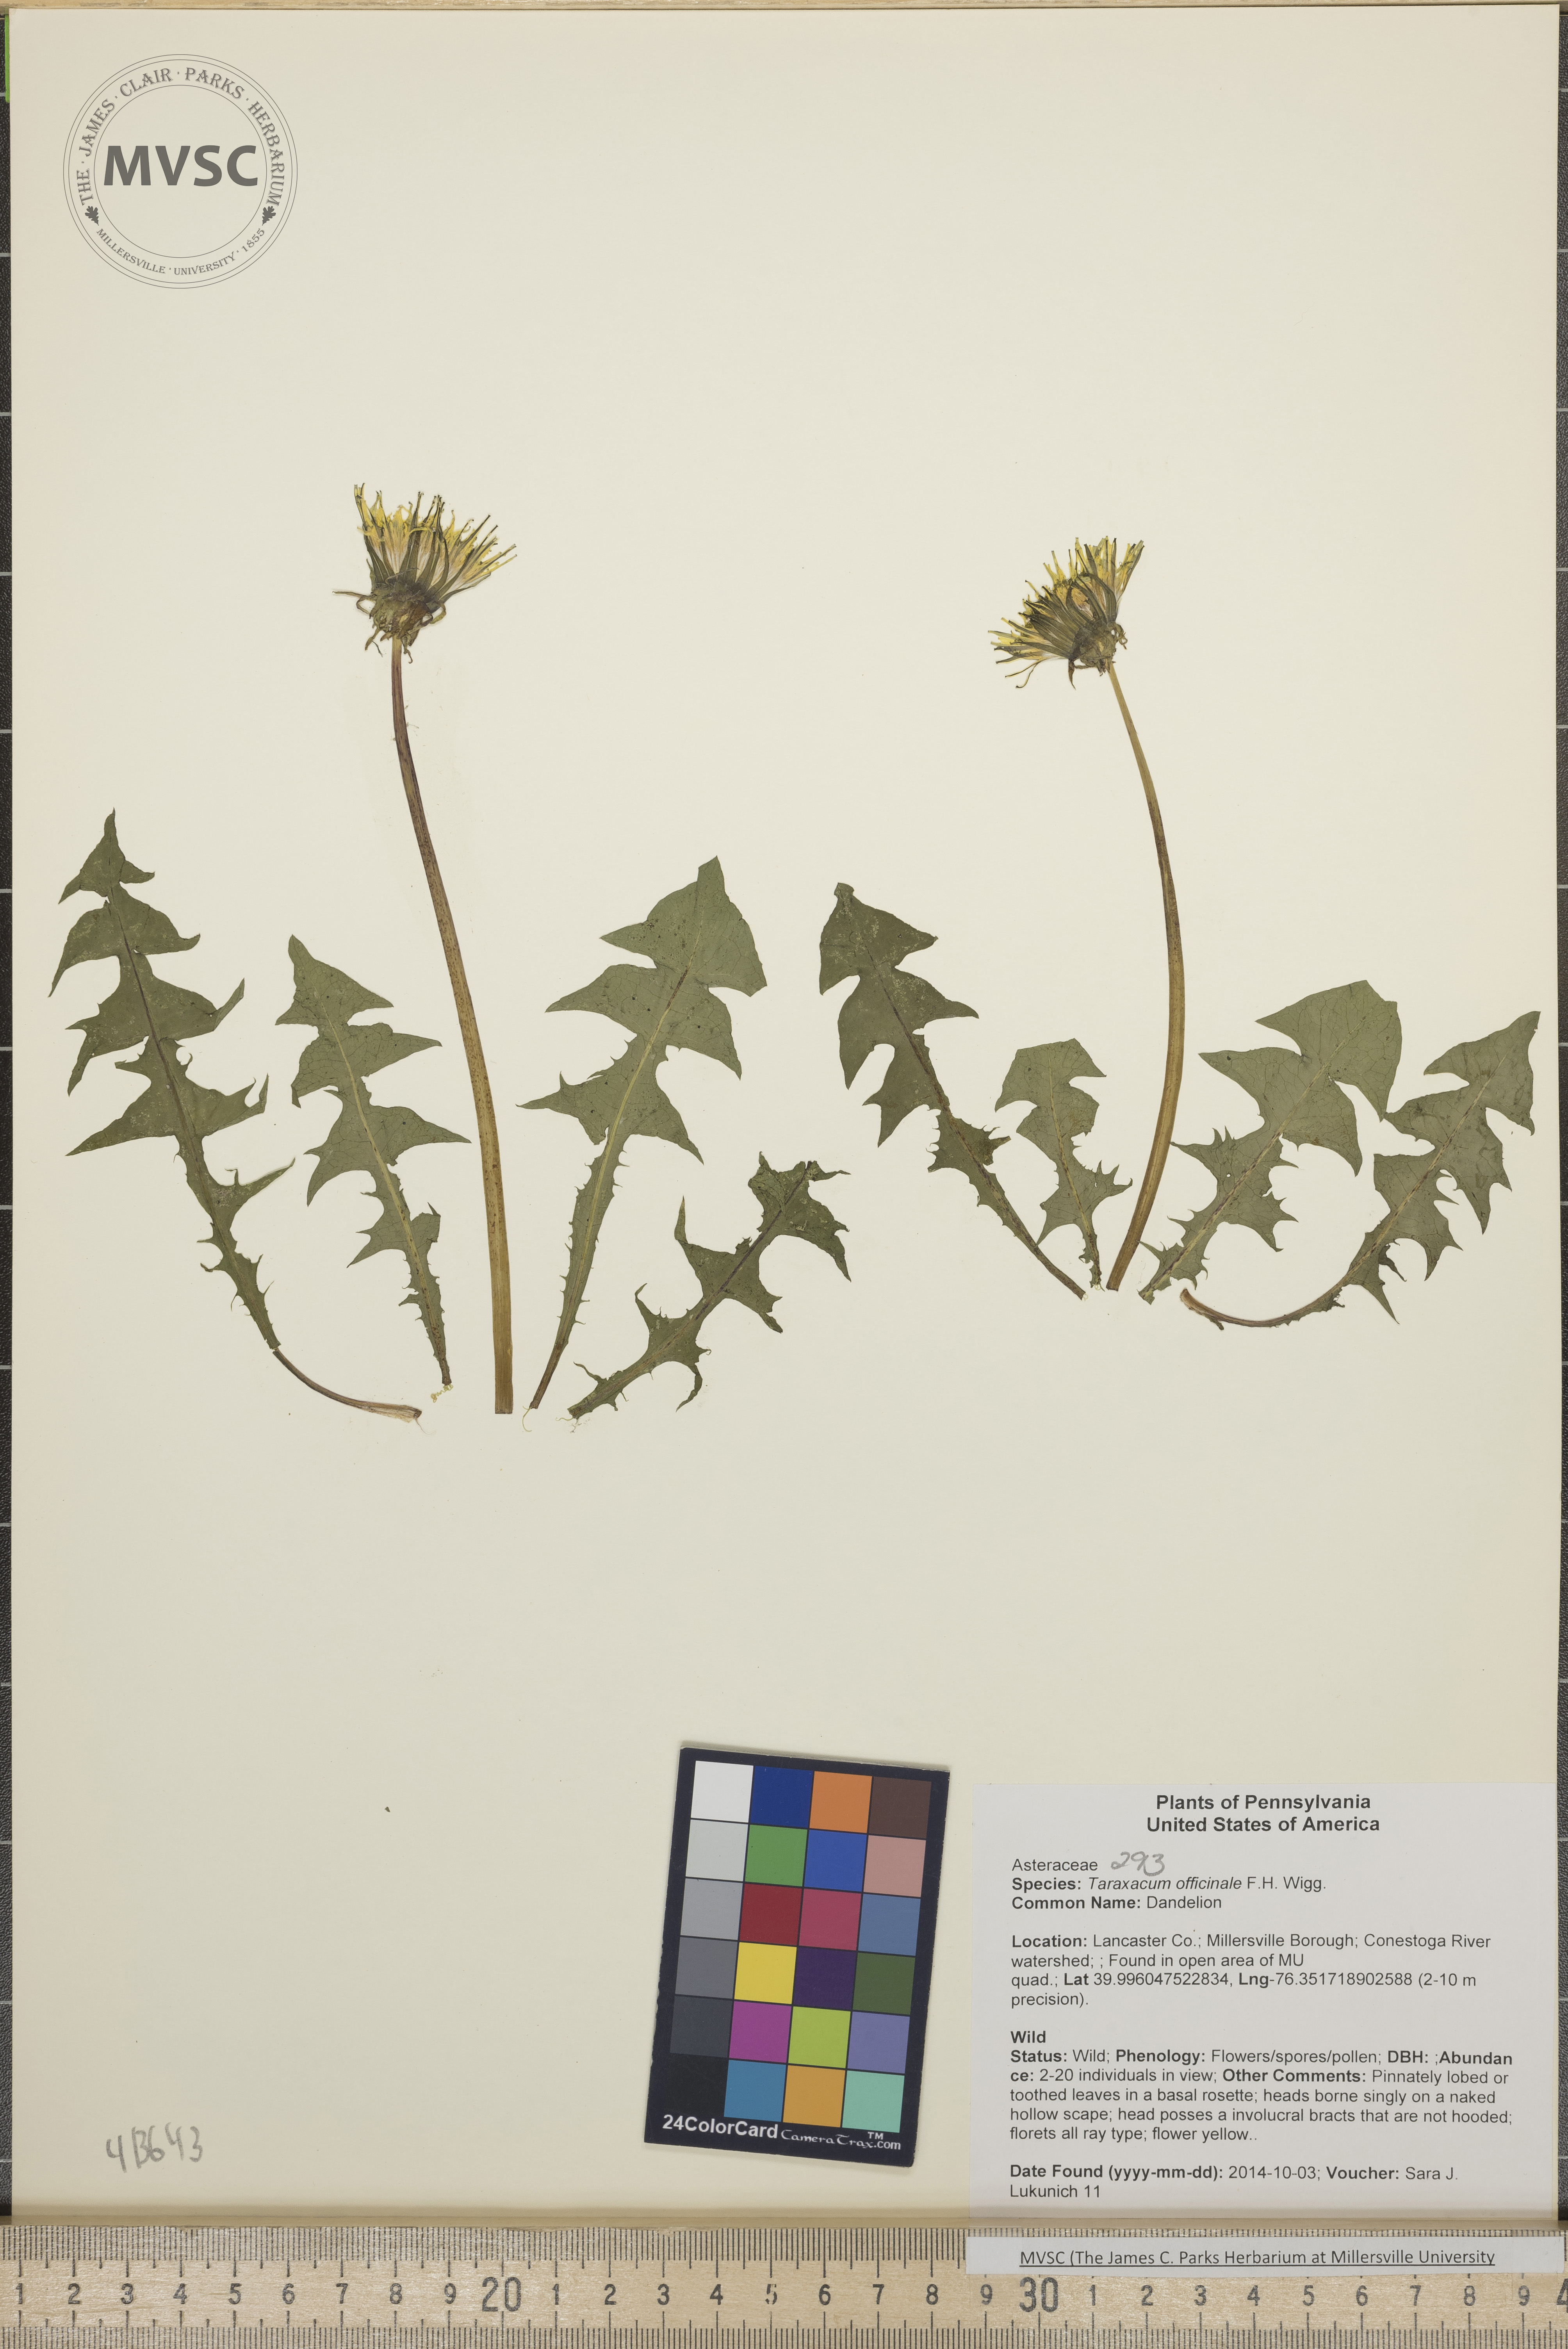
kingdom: Plantae
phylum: Tracheophyta
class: Magnoliopsida
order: Asterales
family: Asteraceae
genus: Taraxacum
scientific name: Taraxacum officinale
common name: Dandelion
